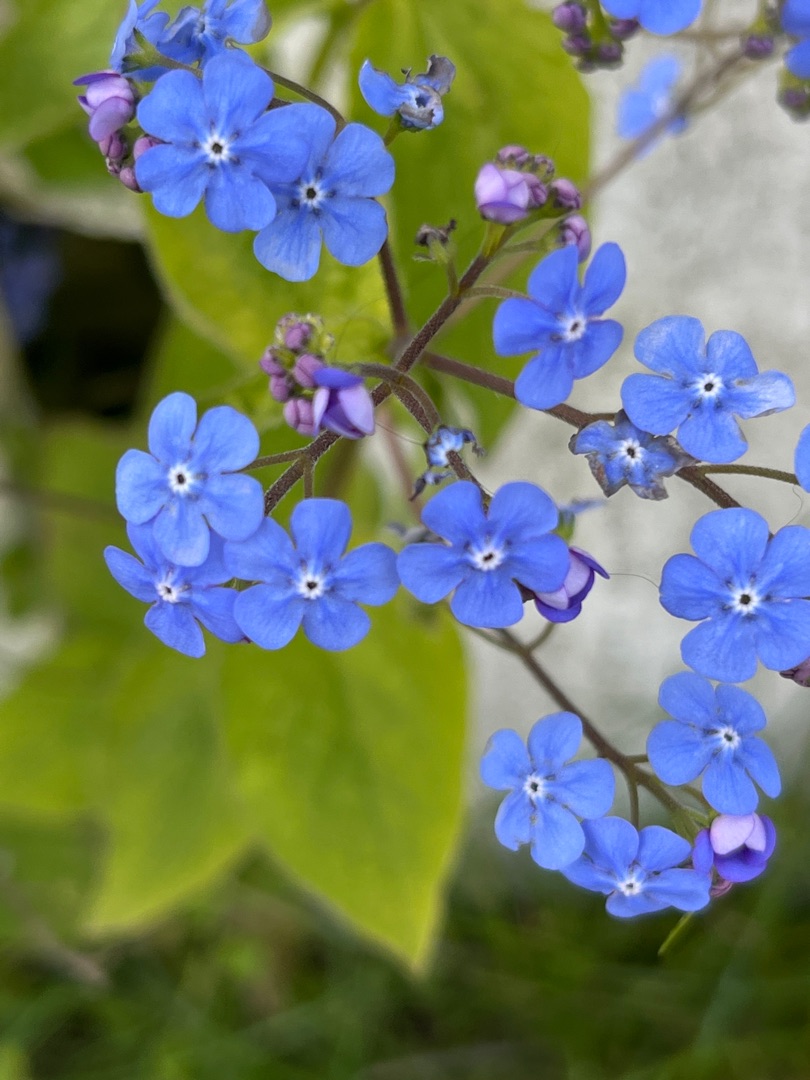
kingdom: Plantae
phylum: Tracheophyta
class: Magnoliopsida
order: Boraginales
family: Boraginaceae
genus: Brunnera
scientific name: Brunnera macrophylla
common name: Kærmindesøster
